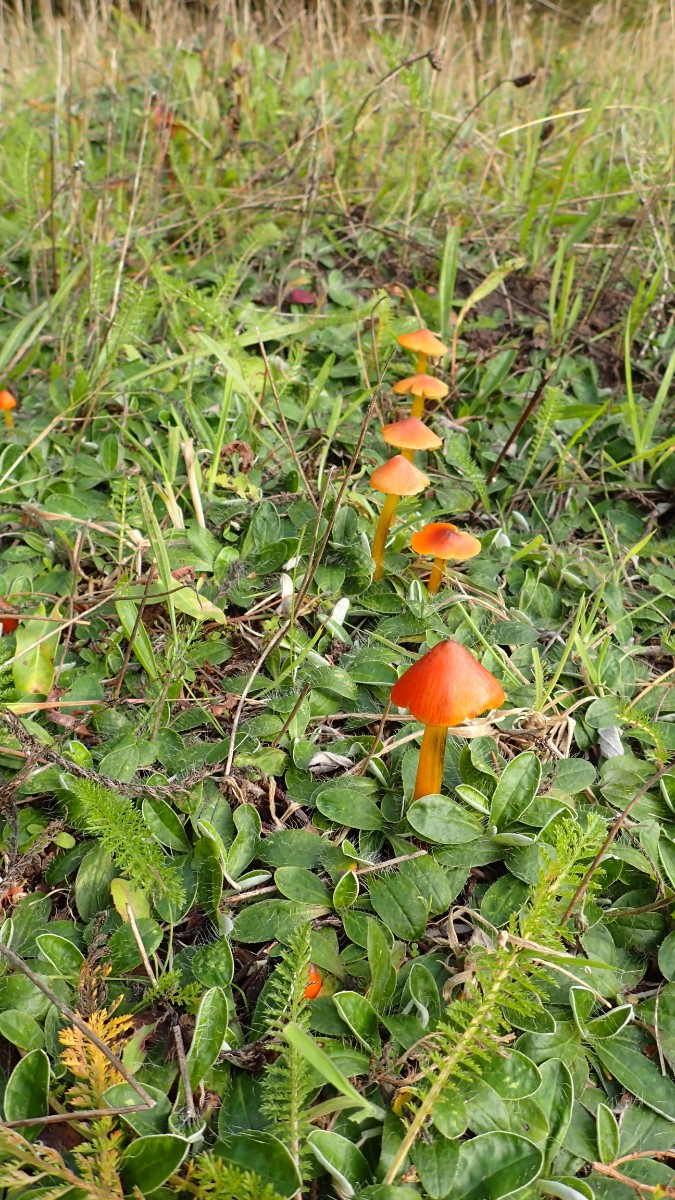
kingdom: Fungi
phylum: Basidiomycota
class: Agaricomycetes
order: Agaricales
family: Hygrophoraceae
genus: Hygrocybe
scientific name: Hygrocybe conica
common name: kegle-vokshat
